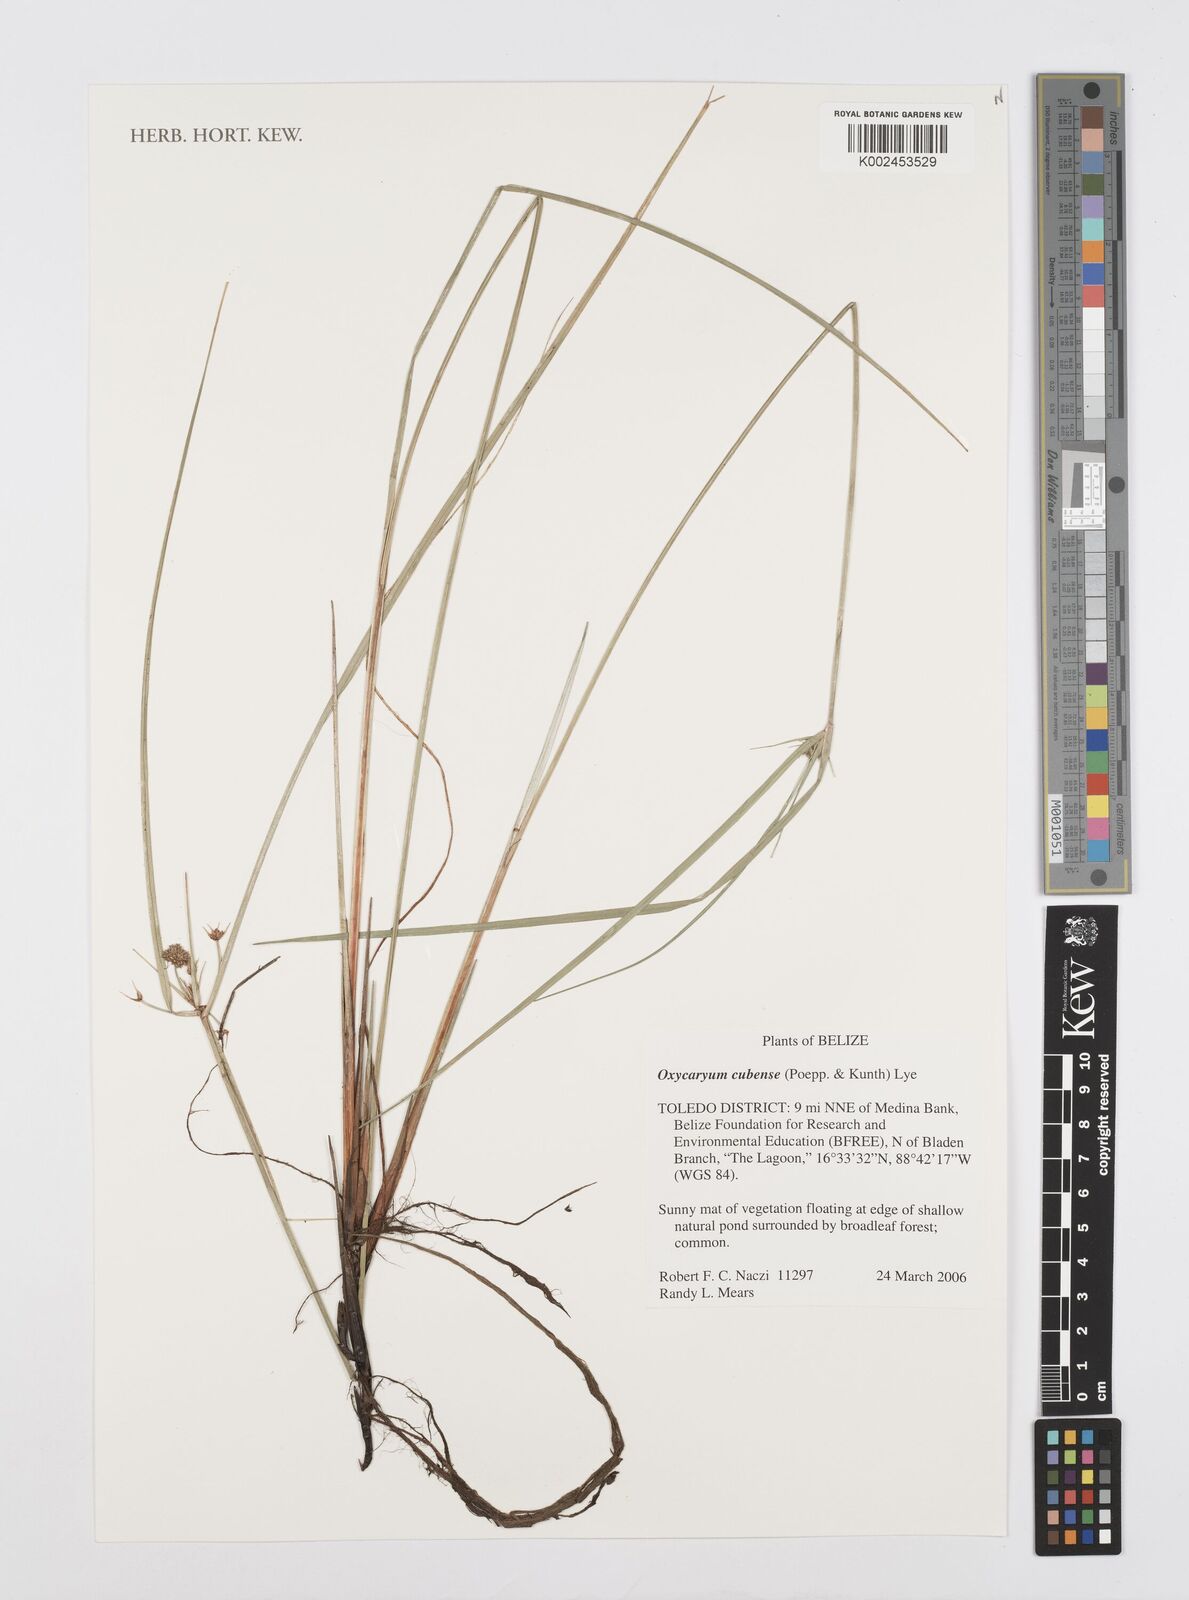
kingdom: Plantae
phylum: Tracheophyta
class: Liliopsida
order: Poales
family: Cyperaceae
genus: Cyperus
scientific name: Cyperus elegans
